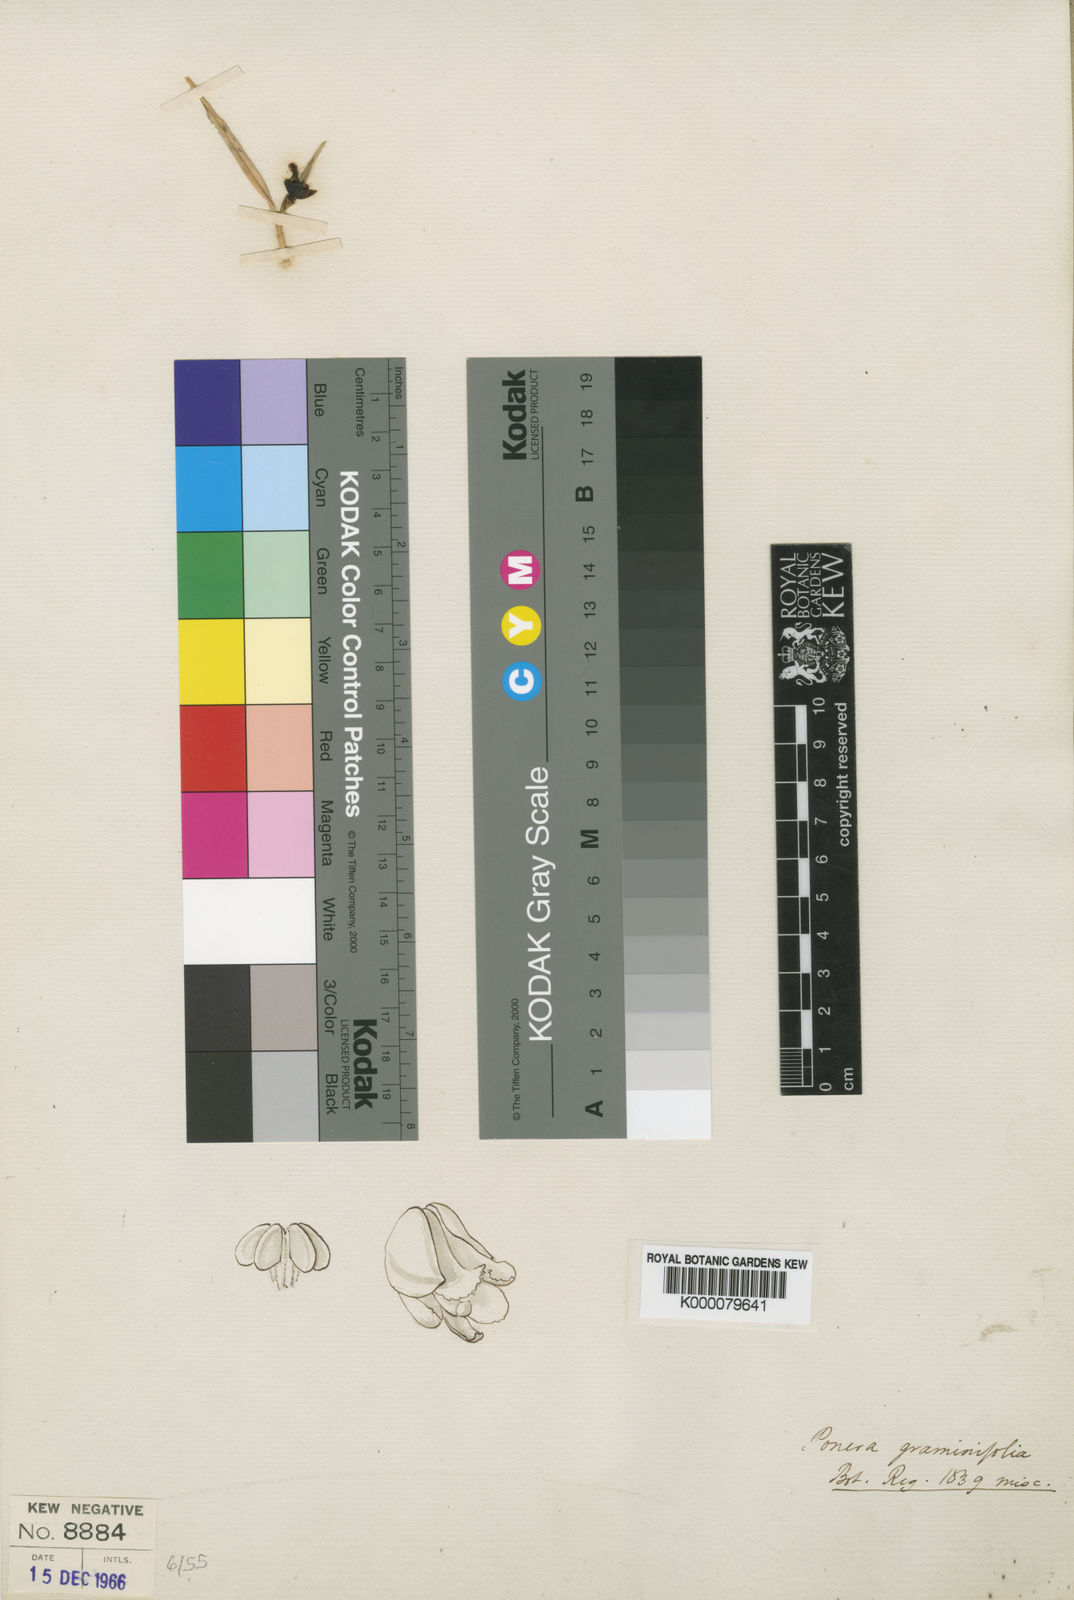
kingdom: Plantae
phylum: Tracheophyta
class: Liliopsida
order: Asparagales
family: Orchidaceae
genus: Nemaconia
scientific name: Nemaconia graminifolia
